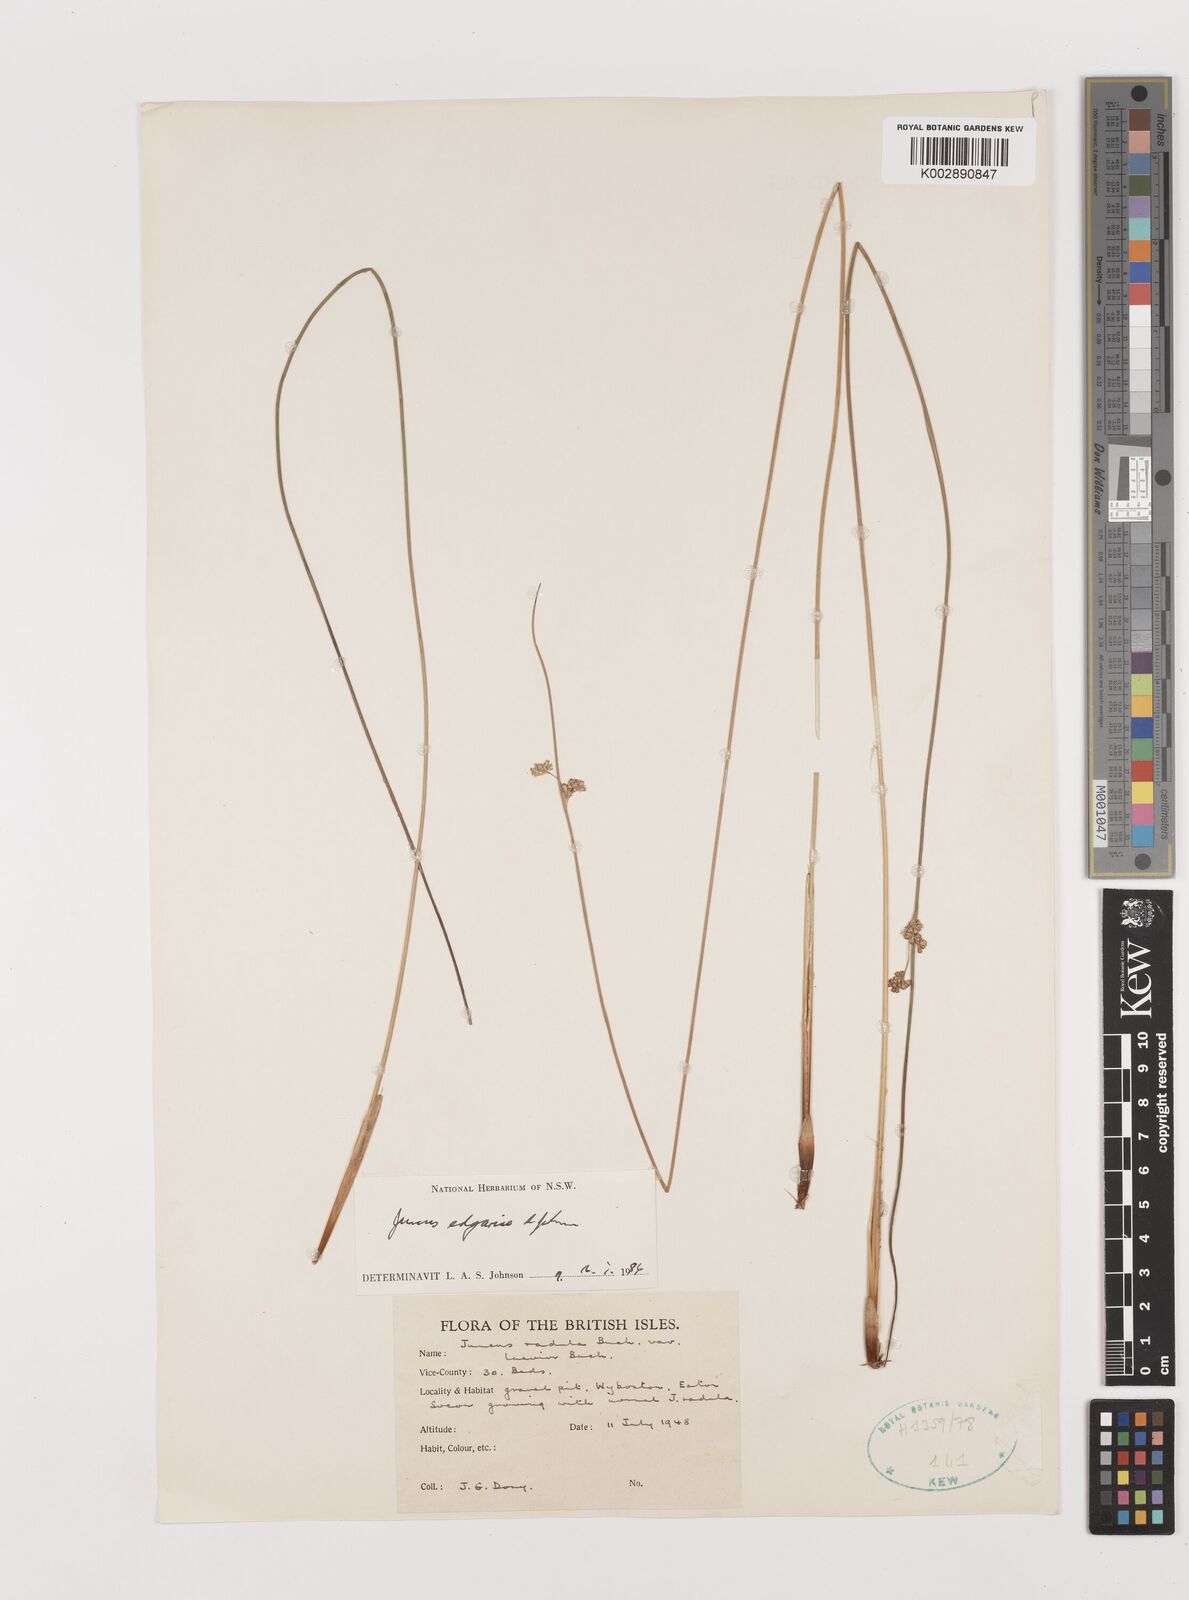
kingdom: Plantae
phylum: Tracheophyta
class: Liliopsida
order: Poales
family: Juncaceae
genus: Juncus
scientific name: Juncus gregiflorus
